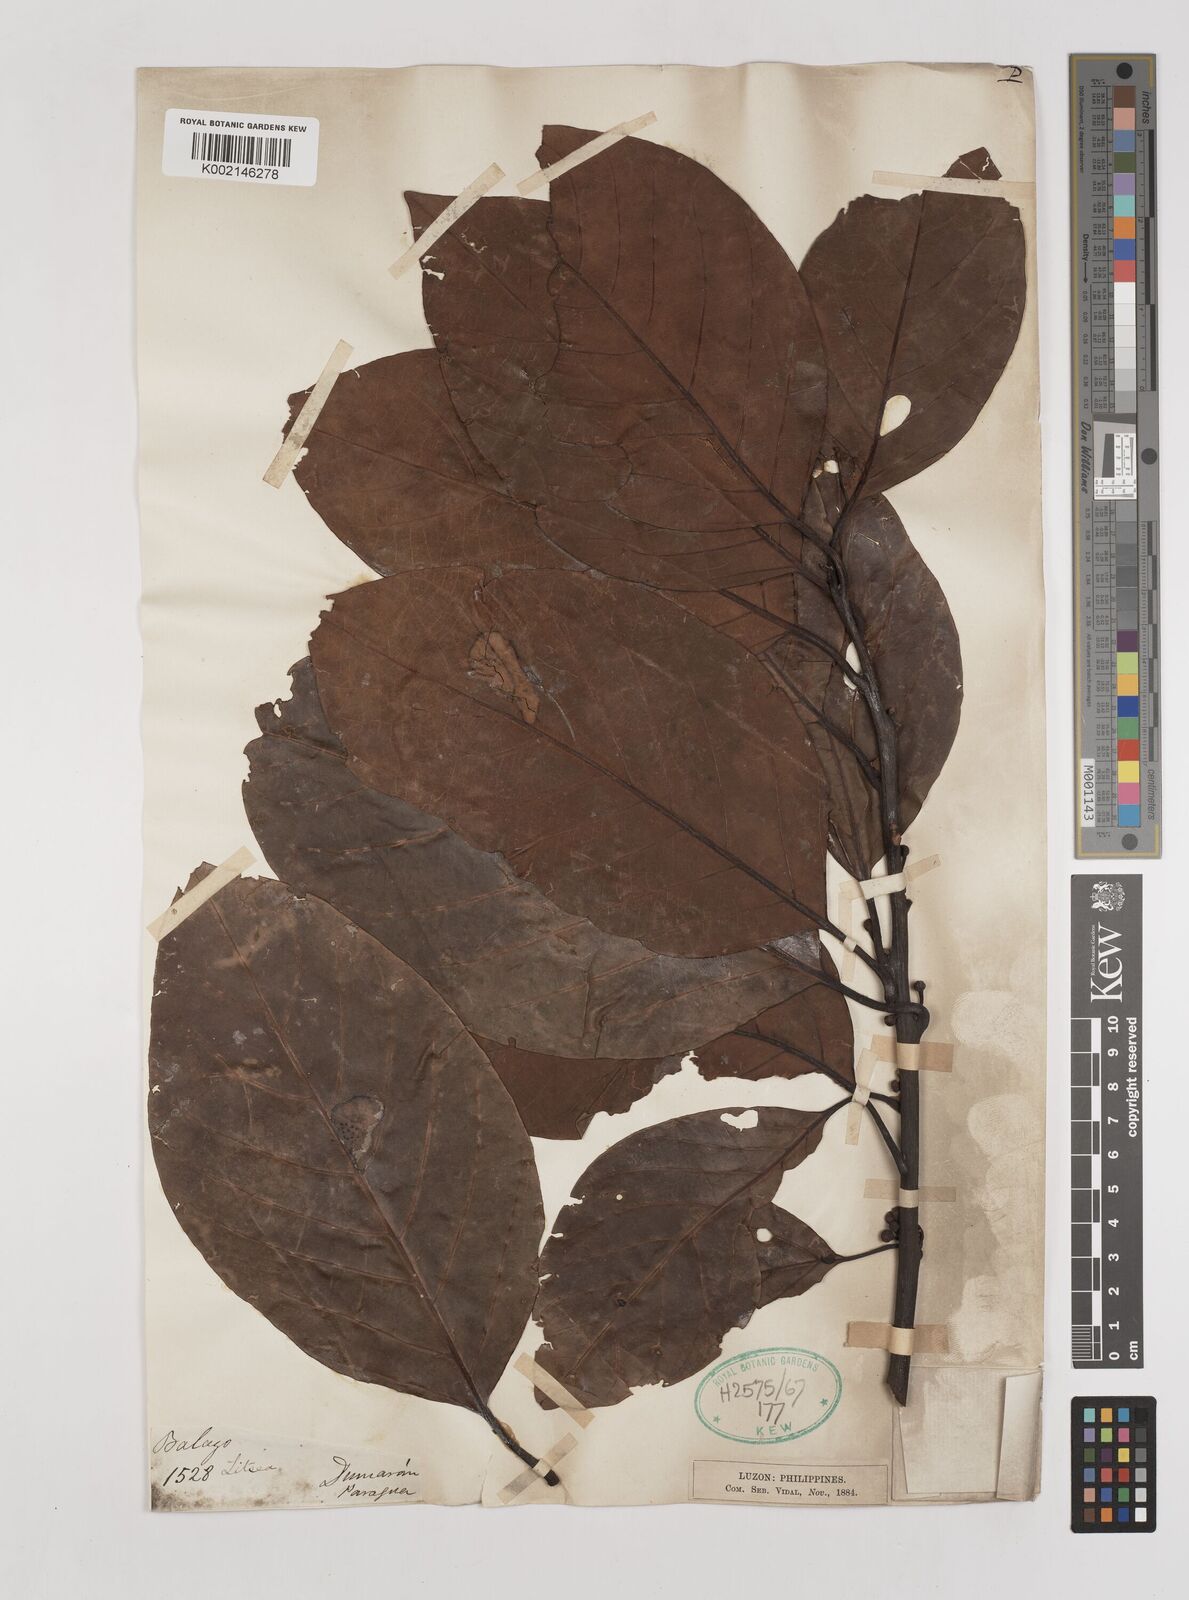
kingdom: Plantae
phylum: Tracheophyta
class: Magnoliopsida
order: Laurales
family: Lauraceae
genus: Litsea
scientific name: Litsea
